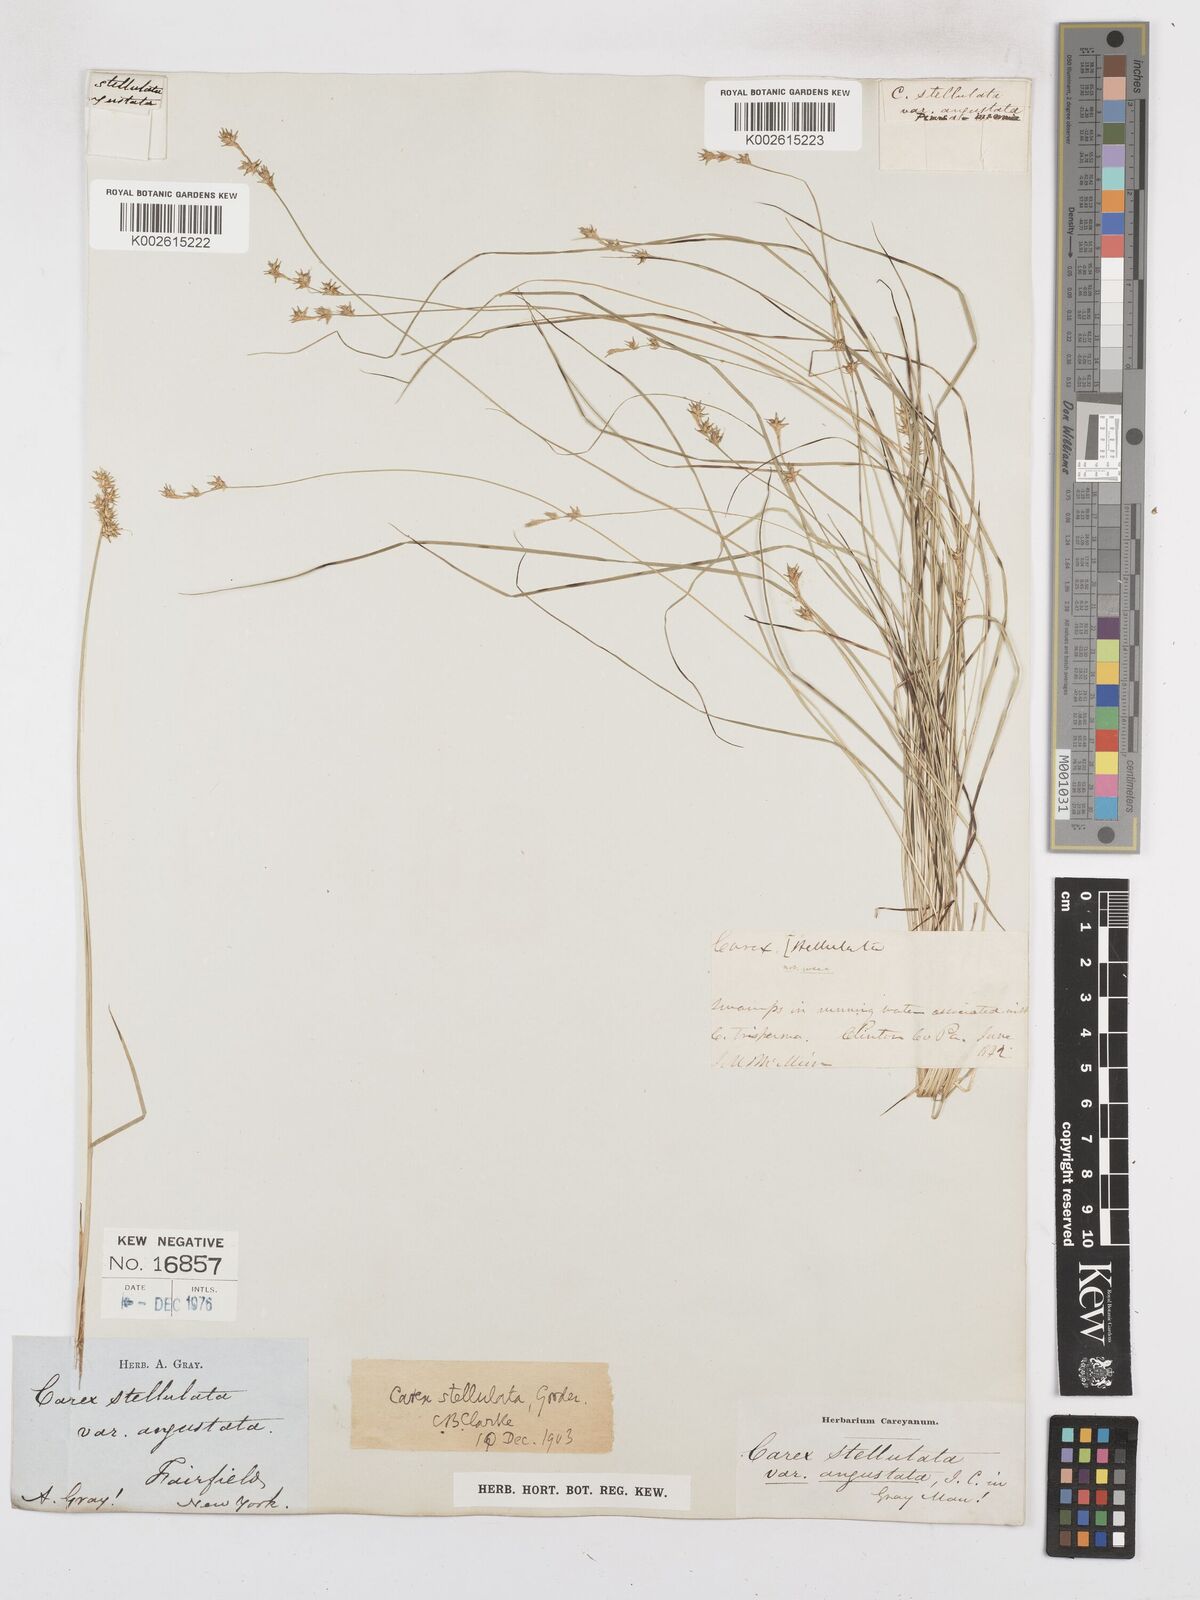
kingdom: Plantae
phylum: Tracheophyta
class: Liliopsida
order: Poales
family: Cyperaceae
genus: Carex
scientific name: Carex echinata
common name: Star sedge
